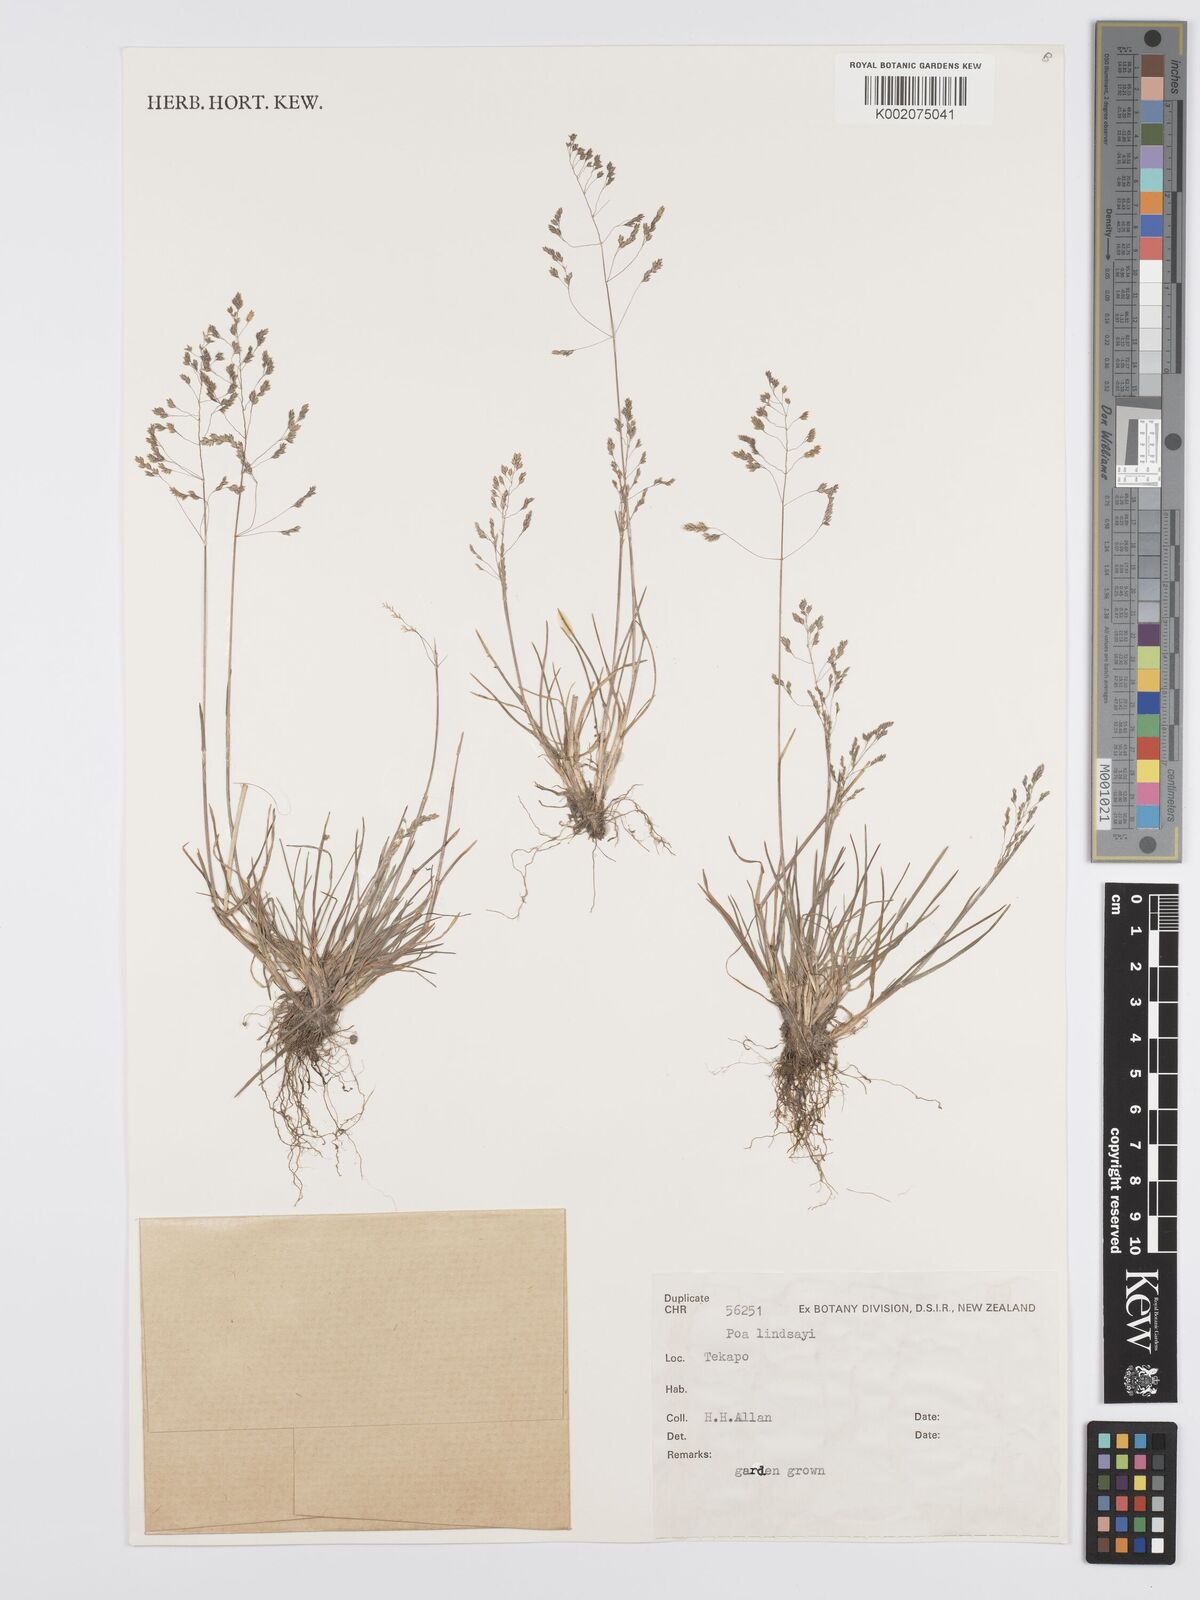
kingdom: Plantae
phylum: Tracheophyta
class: Liliopsida
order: Poales
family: Poaceae
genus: Poa
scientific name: Poa lindsayi
